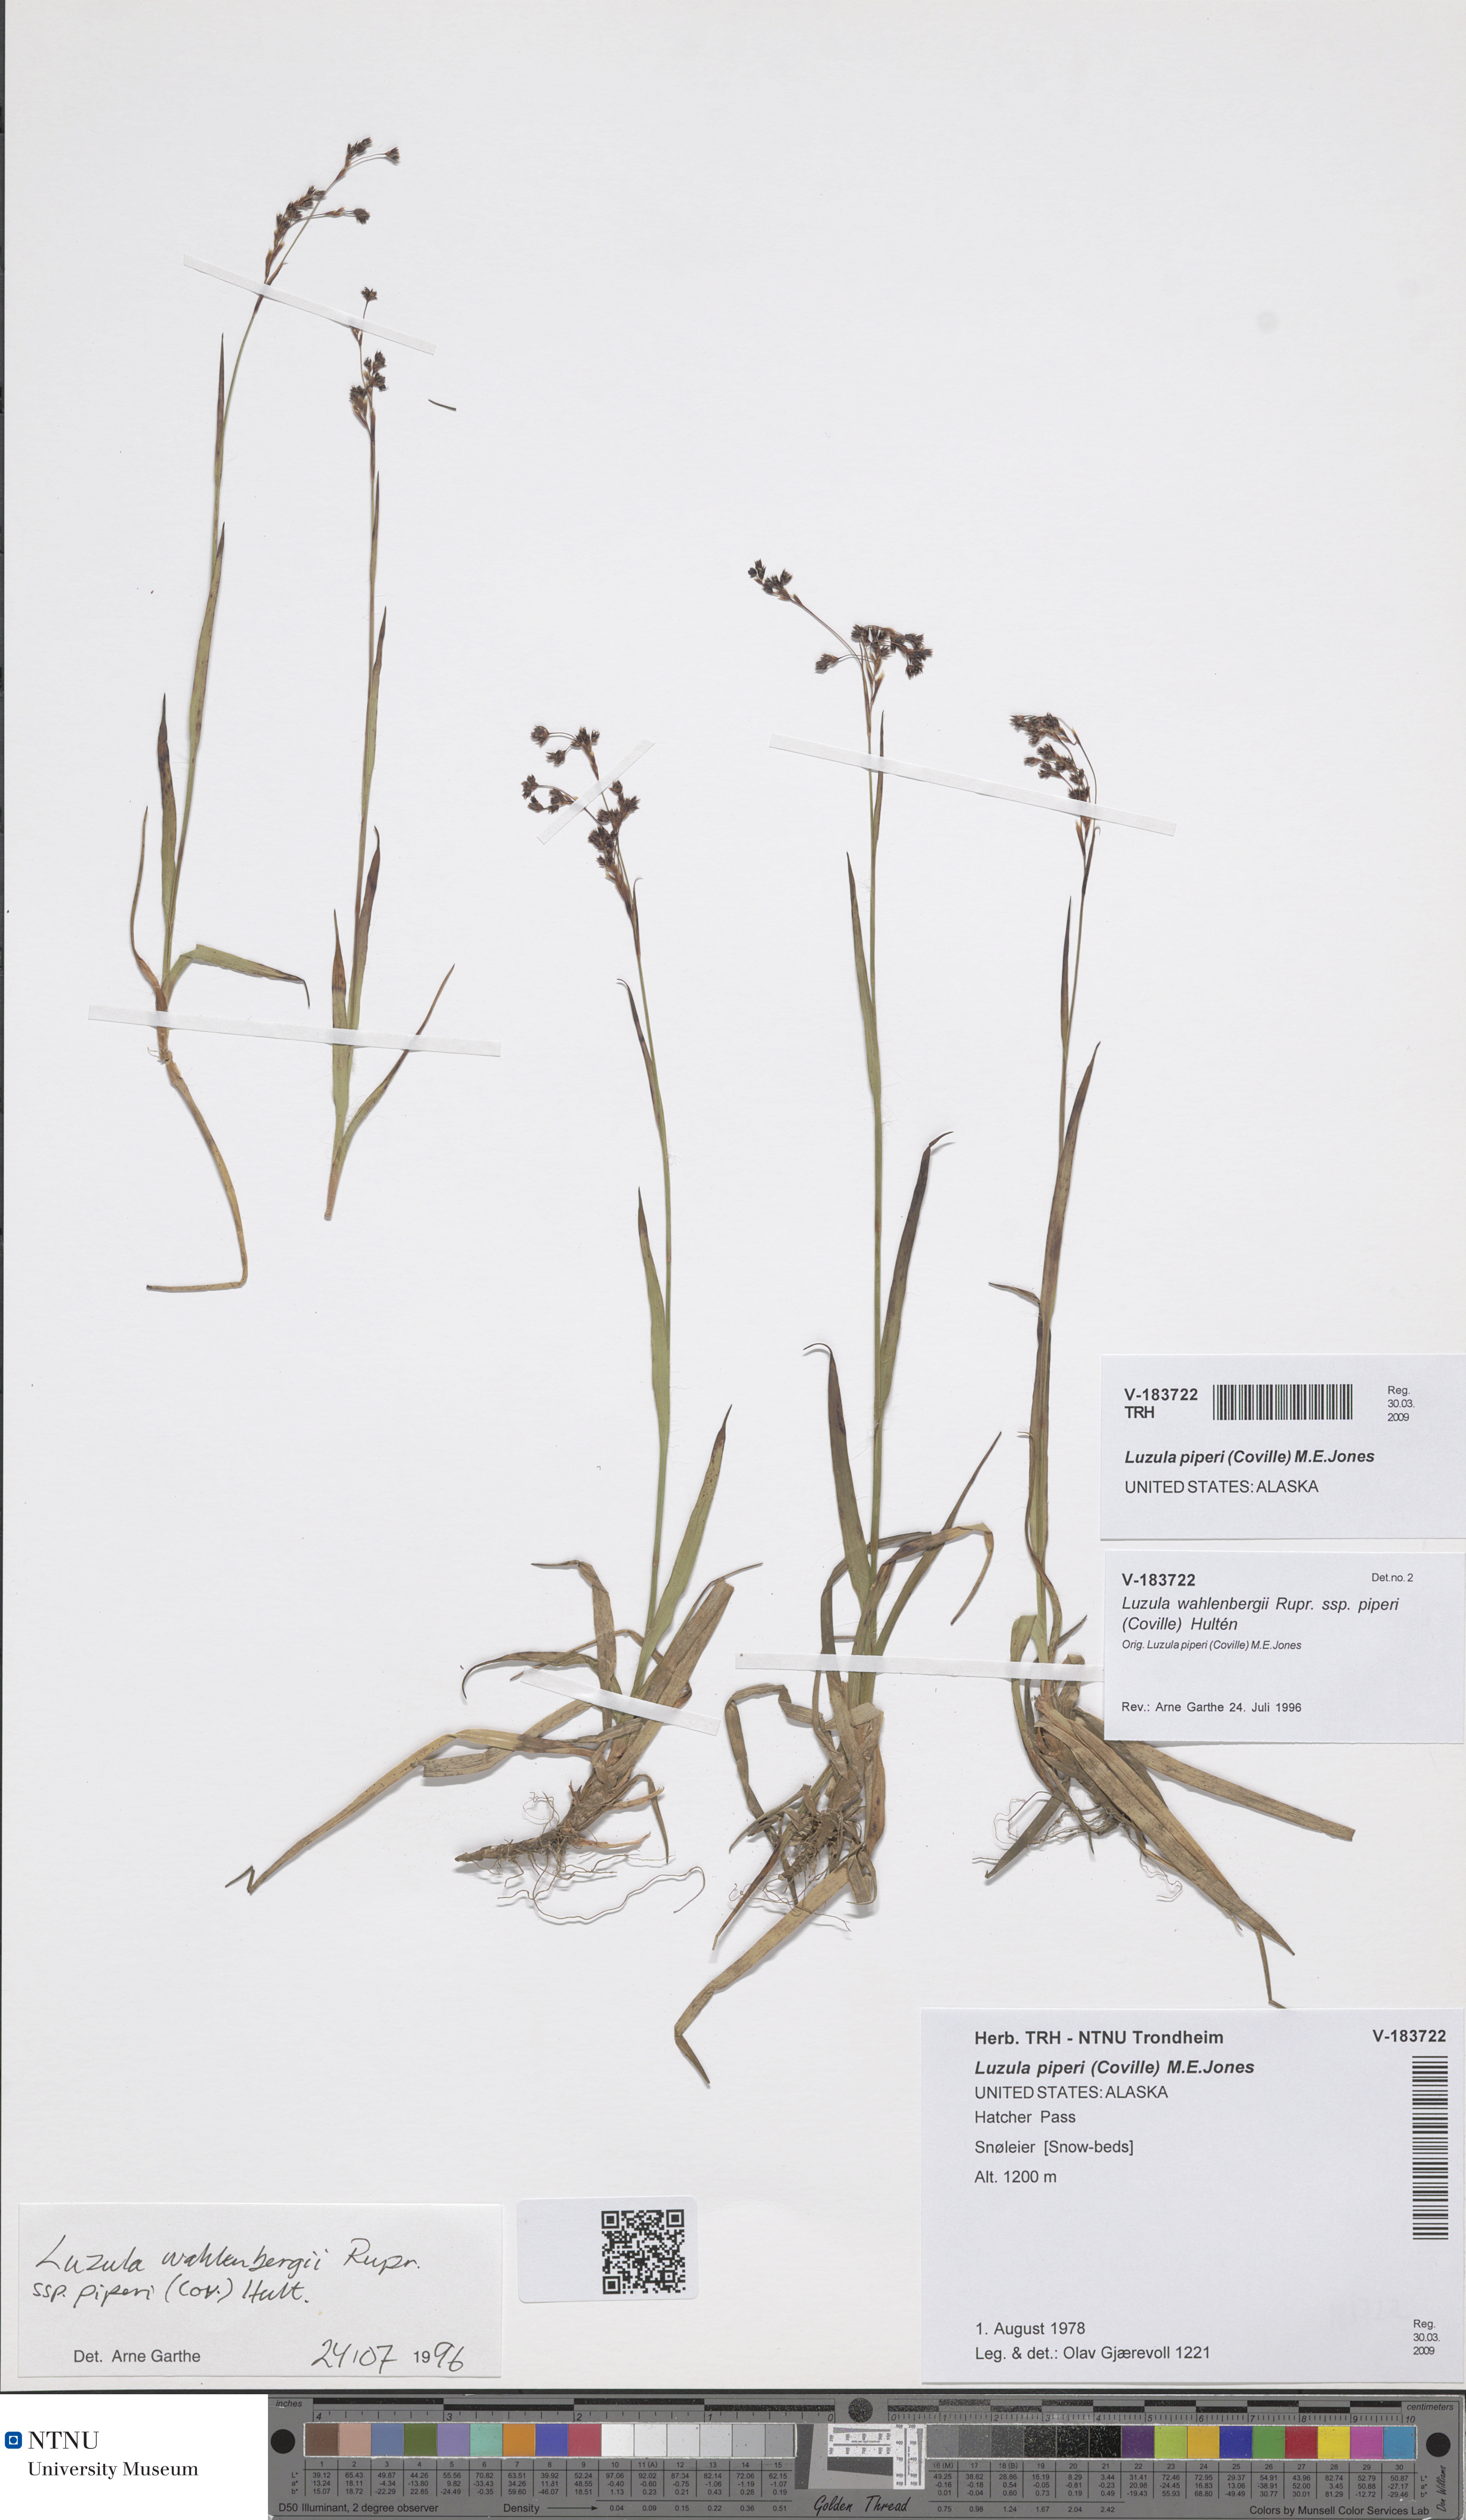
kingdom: Plantae
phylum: Tracheophyta
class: Liliopsida
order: Poales
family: Juncaceae
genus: Luzula
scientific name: Luzula piperi
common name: Piper's wood-rush
